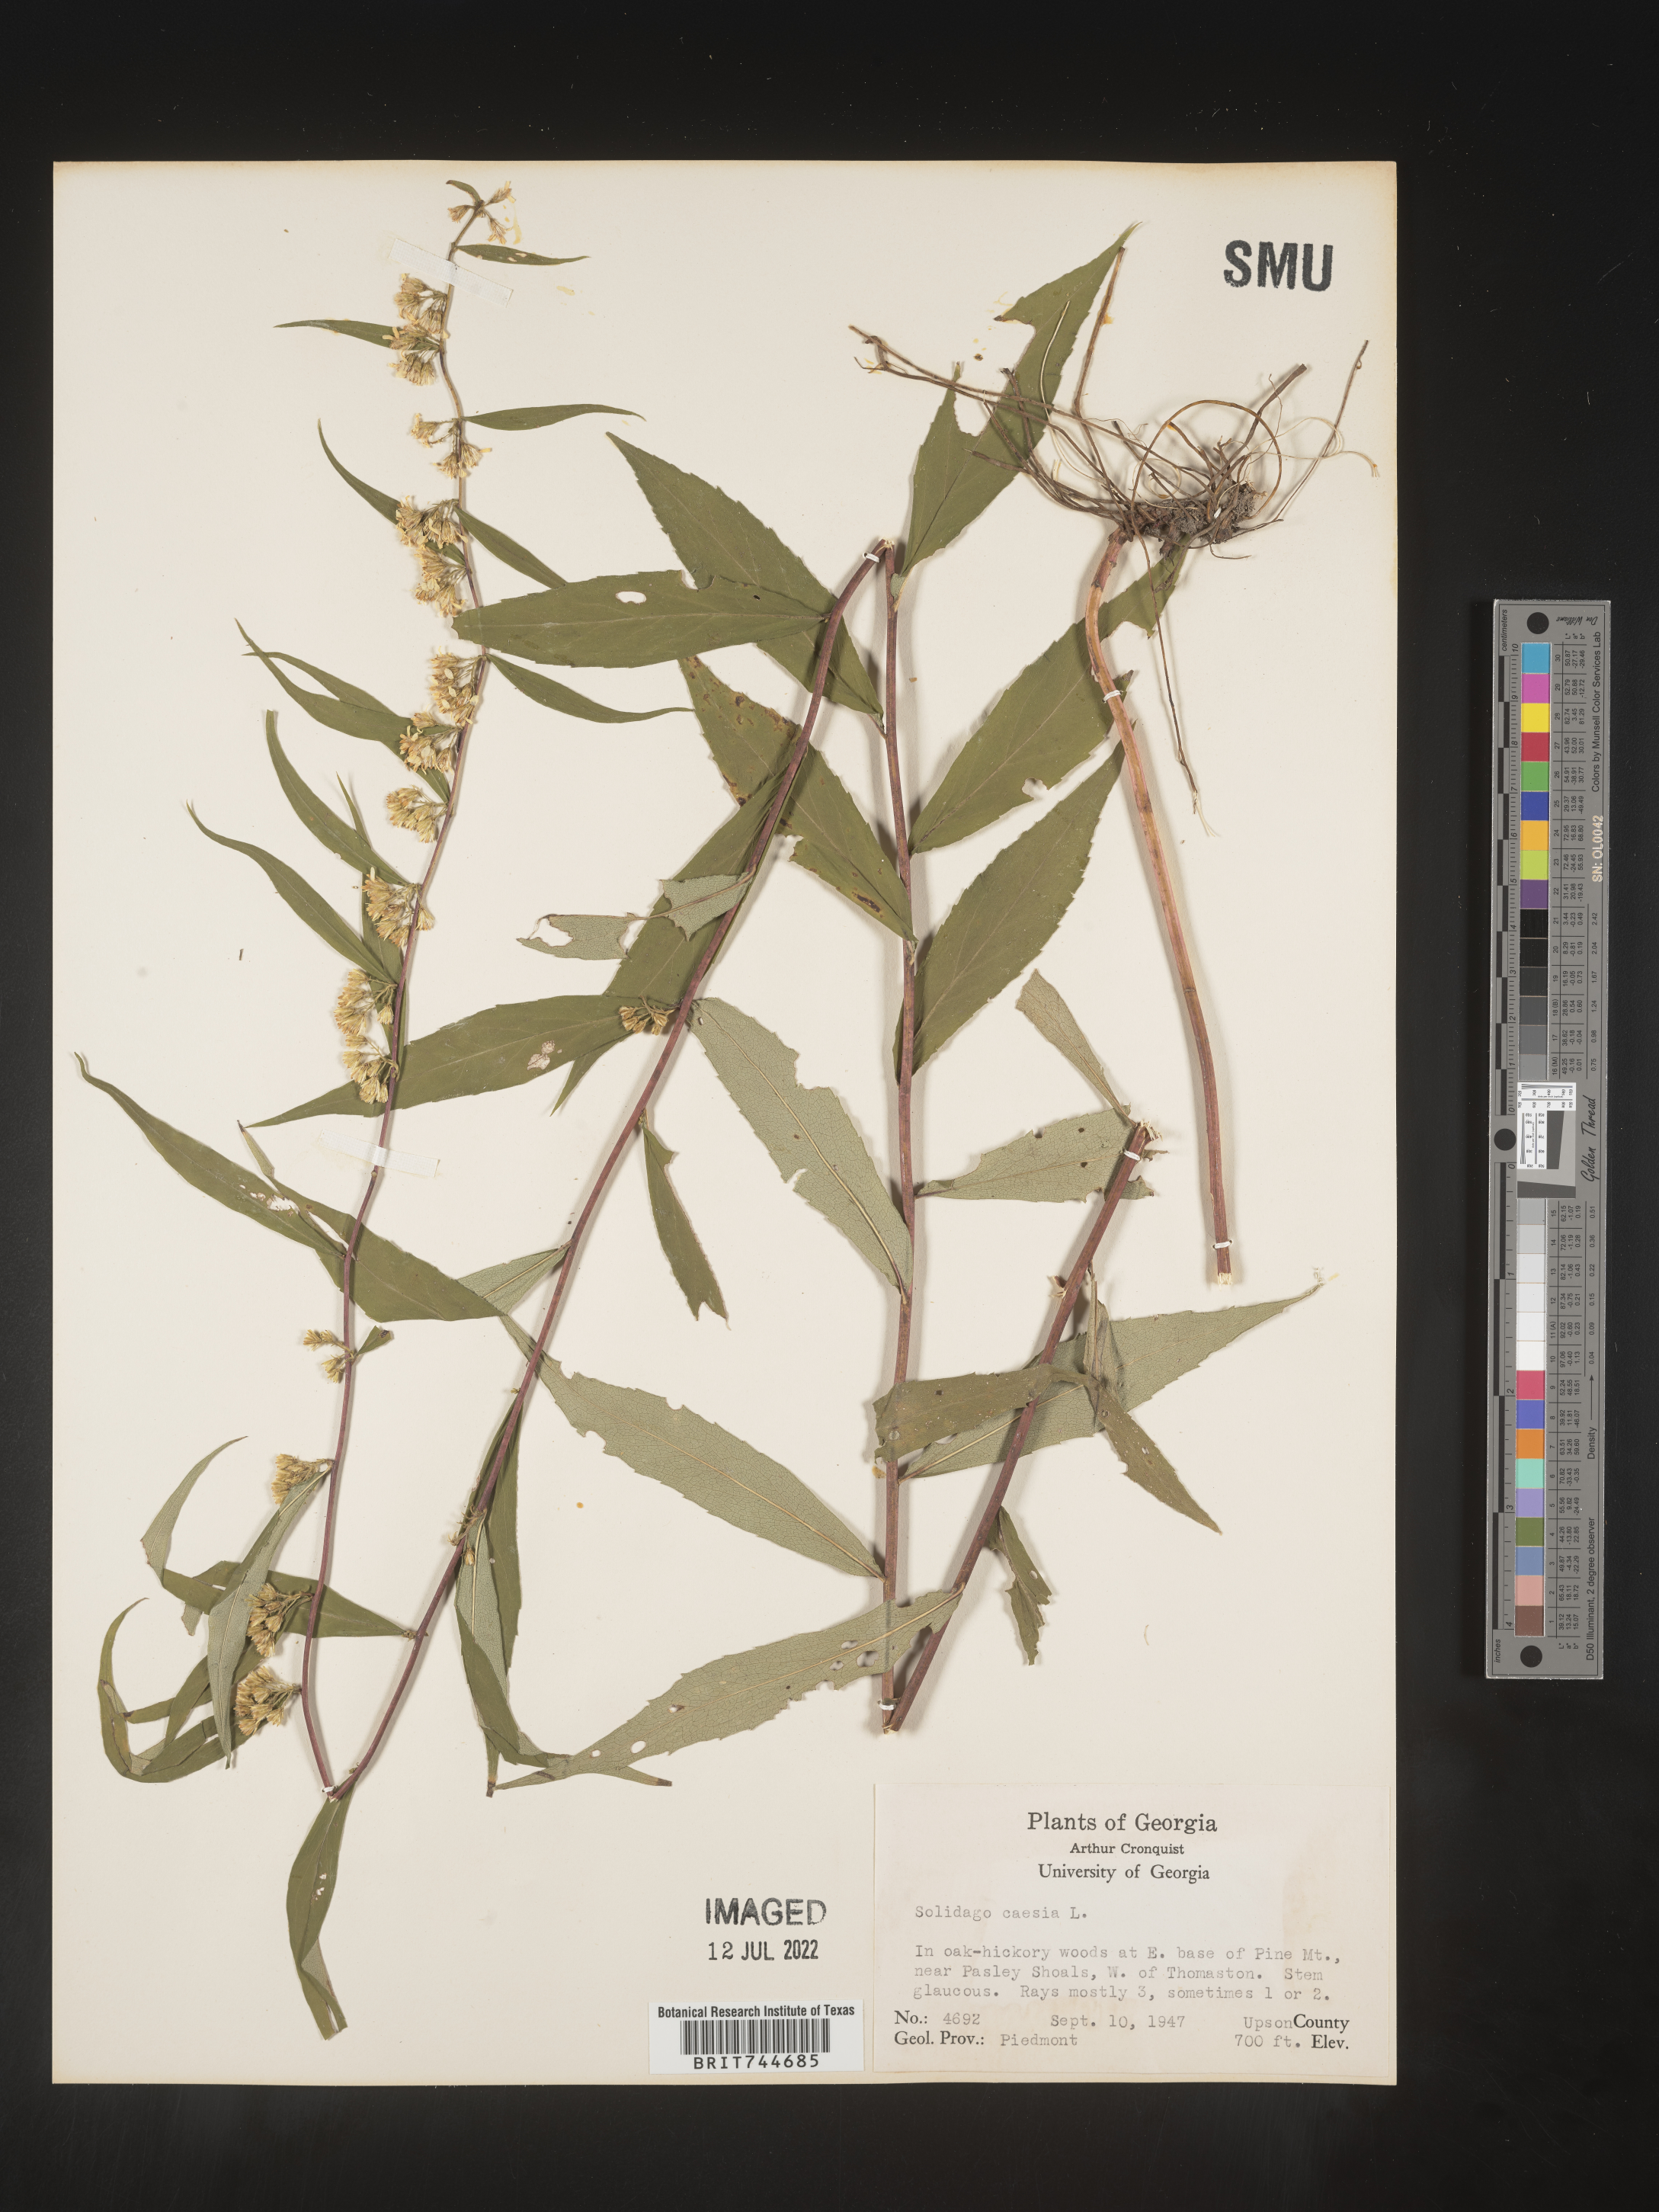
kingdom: Plantae
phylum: Tracheophyta
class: Magnoliopsida
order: Asterales
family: Asteraceae
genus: Solidago
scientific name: Solidago caesia
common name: Woodland goldenrod
